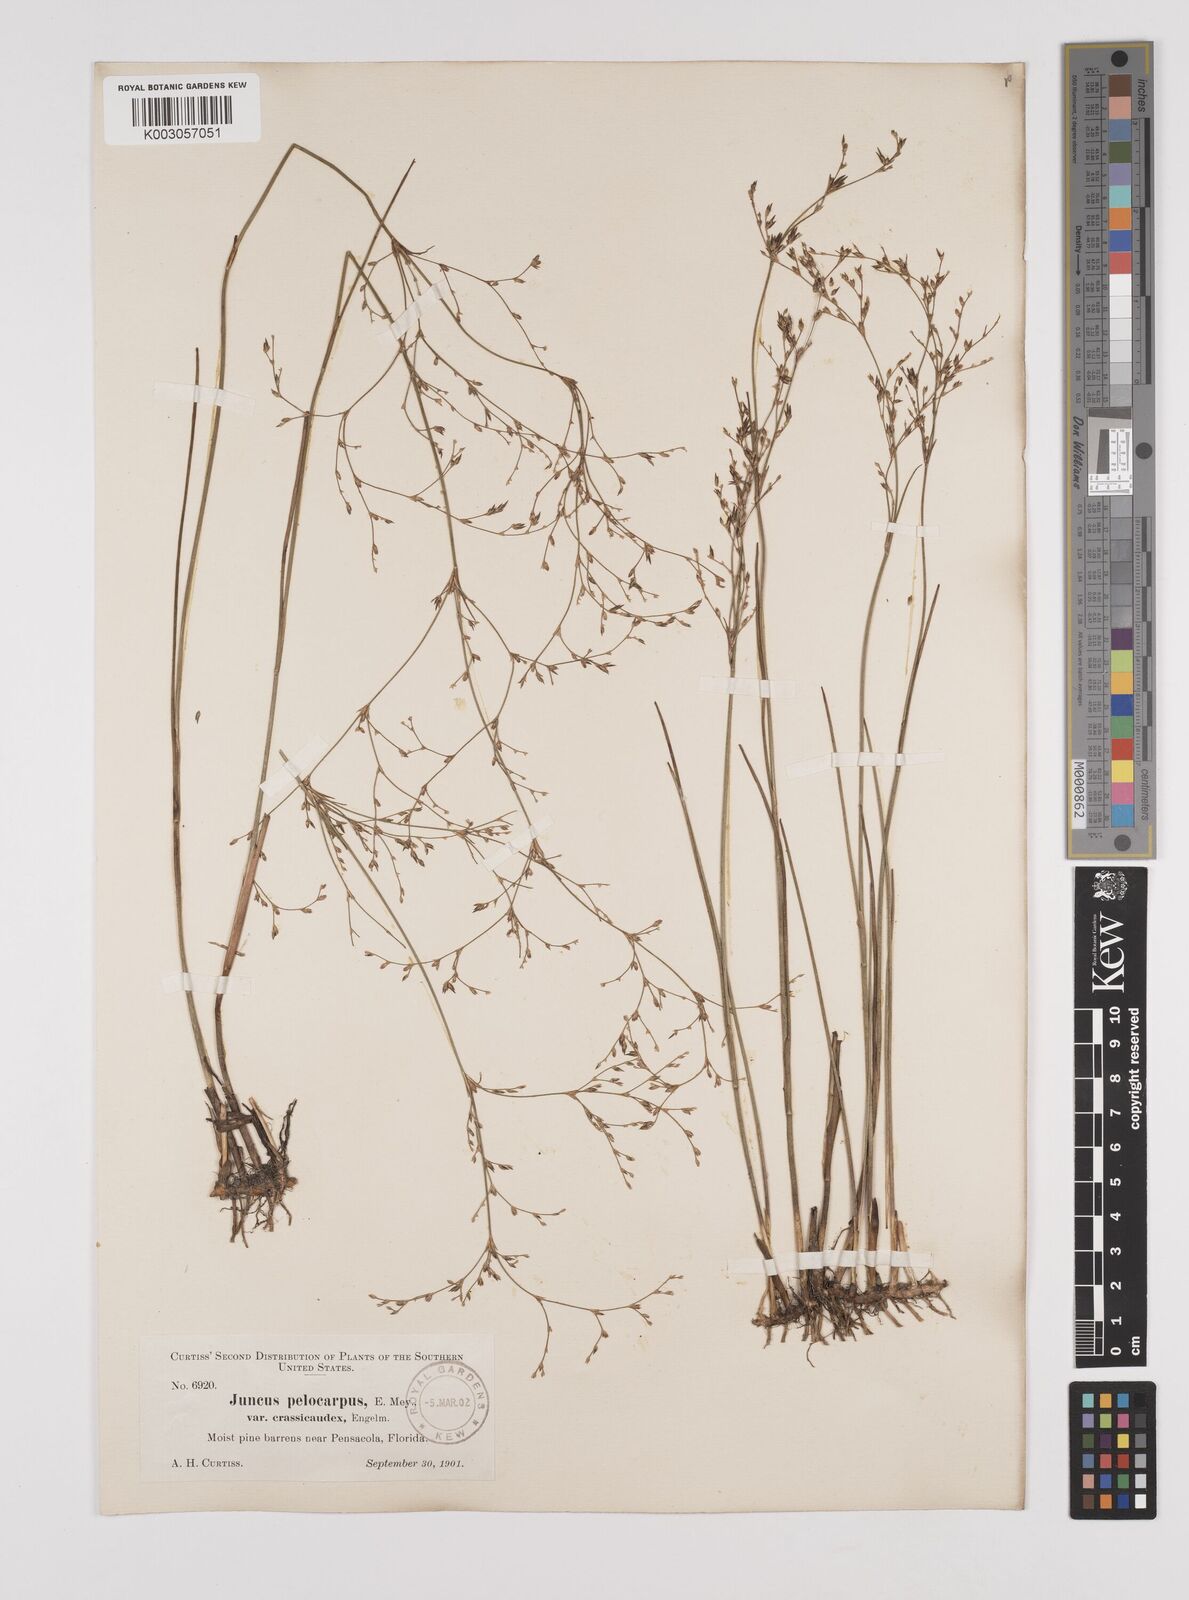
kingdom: Plantae
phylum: Tracheophyta
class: Liliopsida
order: Poales
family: Juncaceae
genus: Juncus
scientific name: Juncus pelocarpus
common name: Brown-fruited rush
